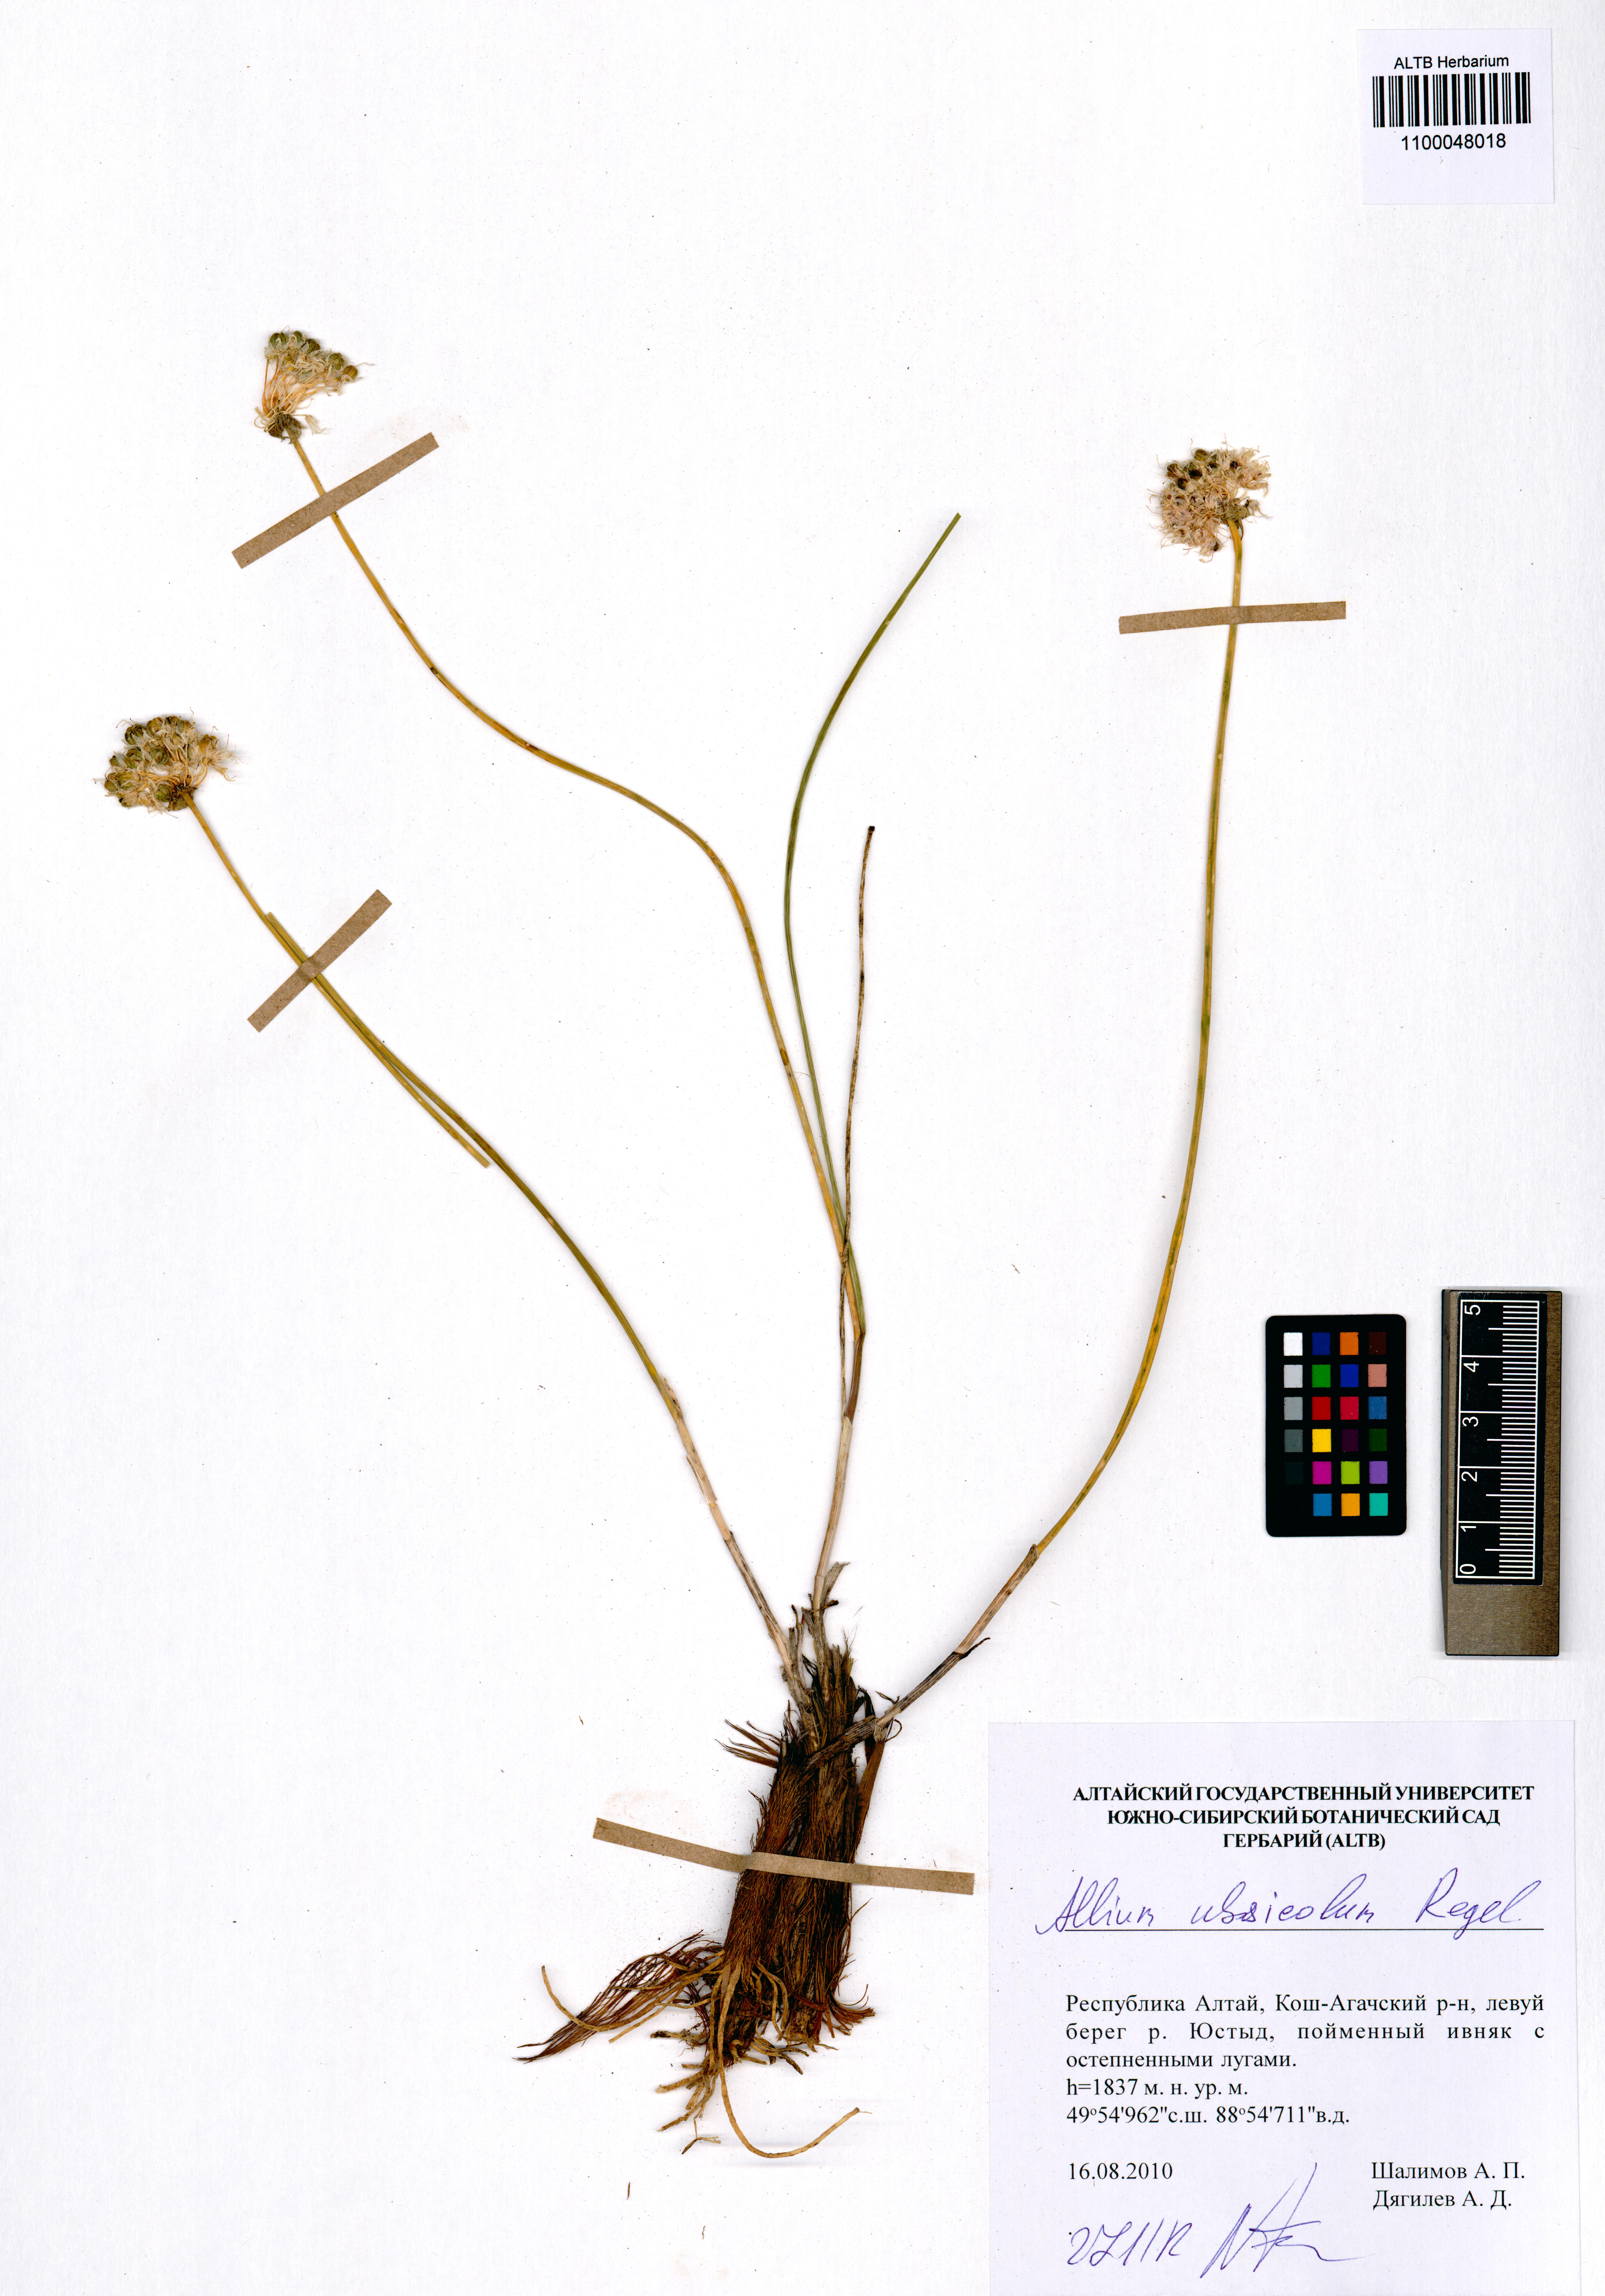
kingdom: Plantae
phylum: Tracheophyta
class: Liliopsida
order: Asparagales
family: Amaryllidaceae
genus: Allium
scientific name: Allium ubsicola
